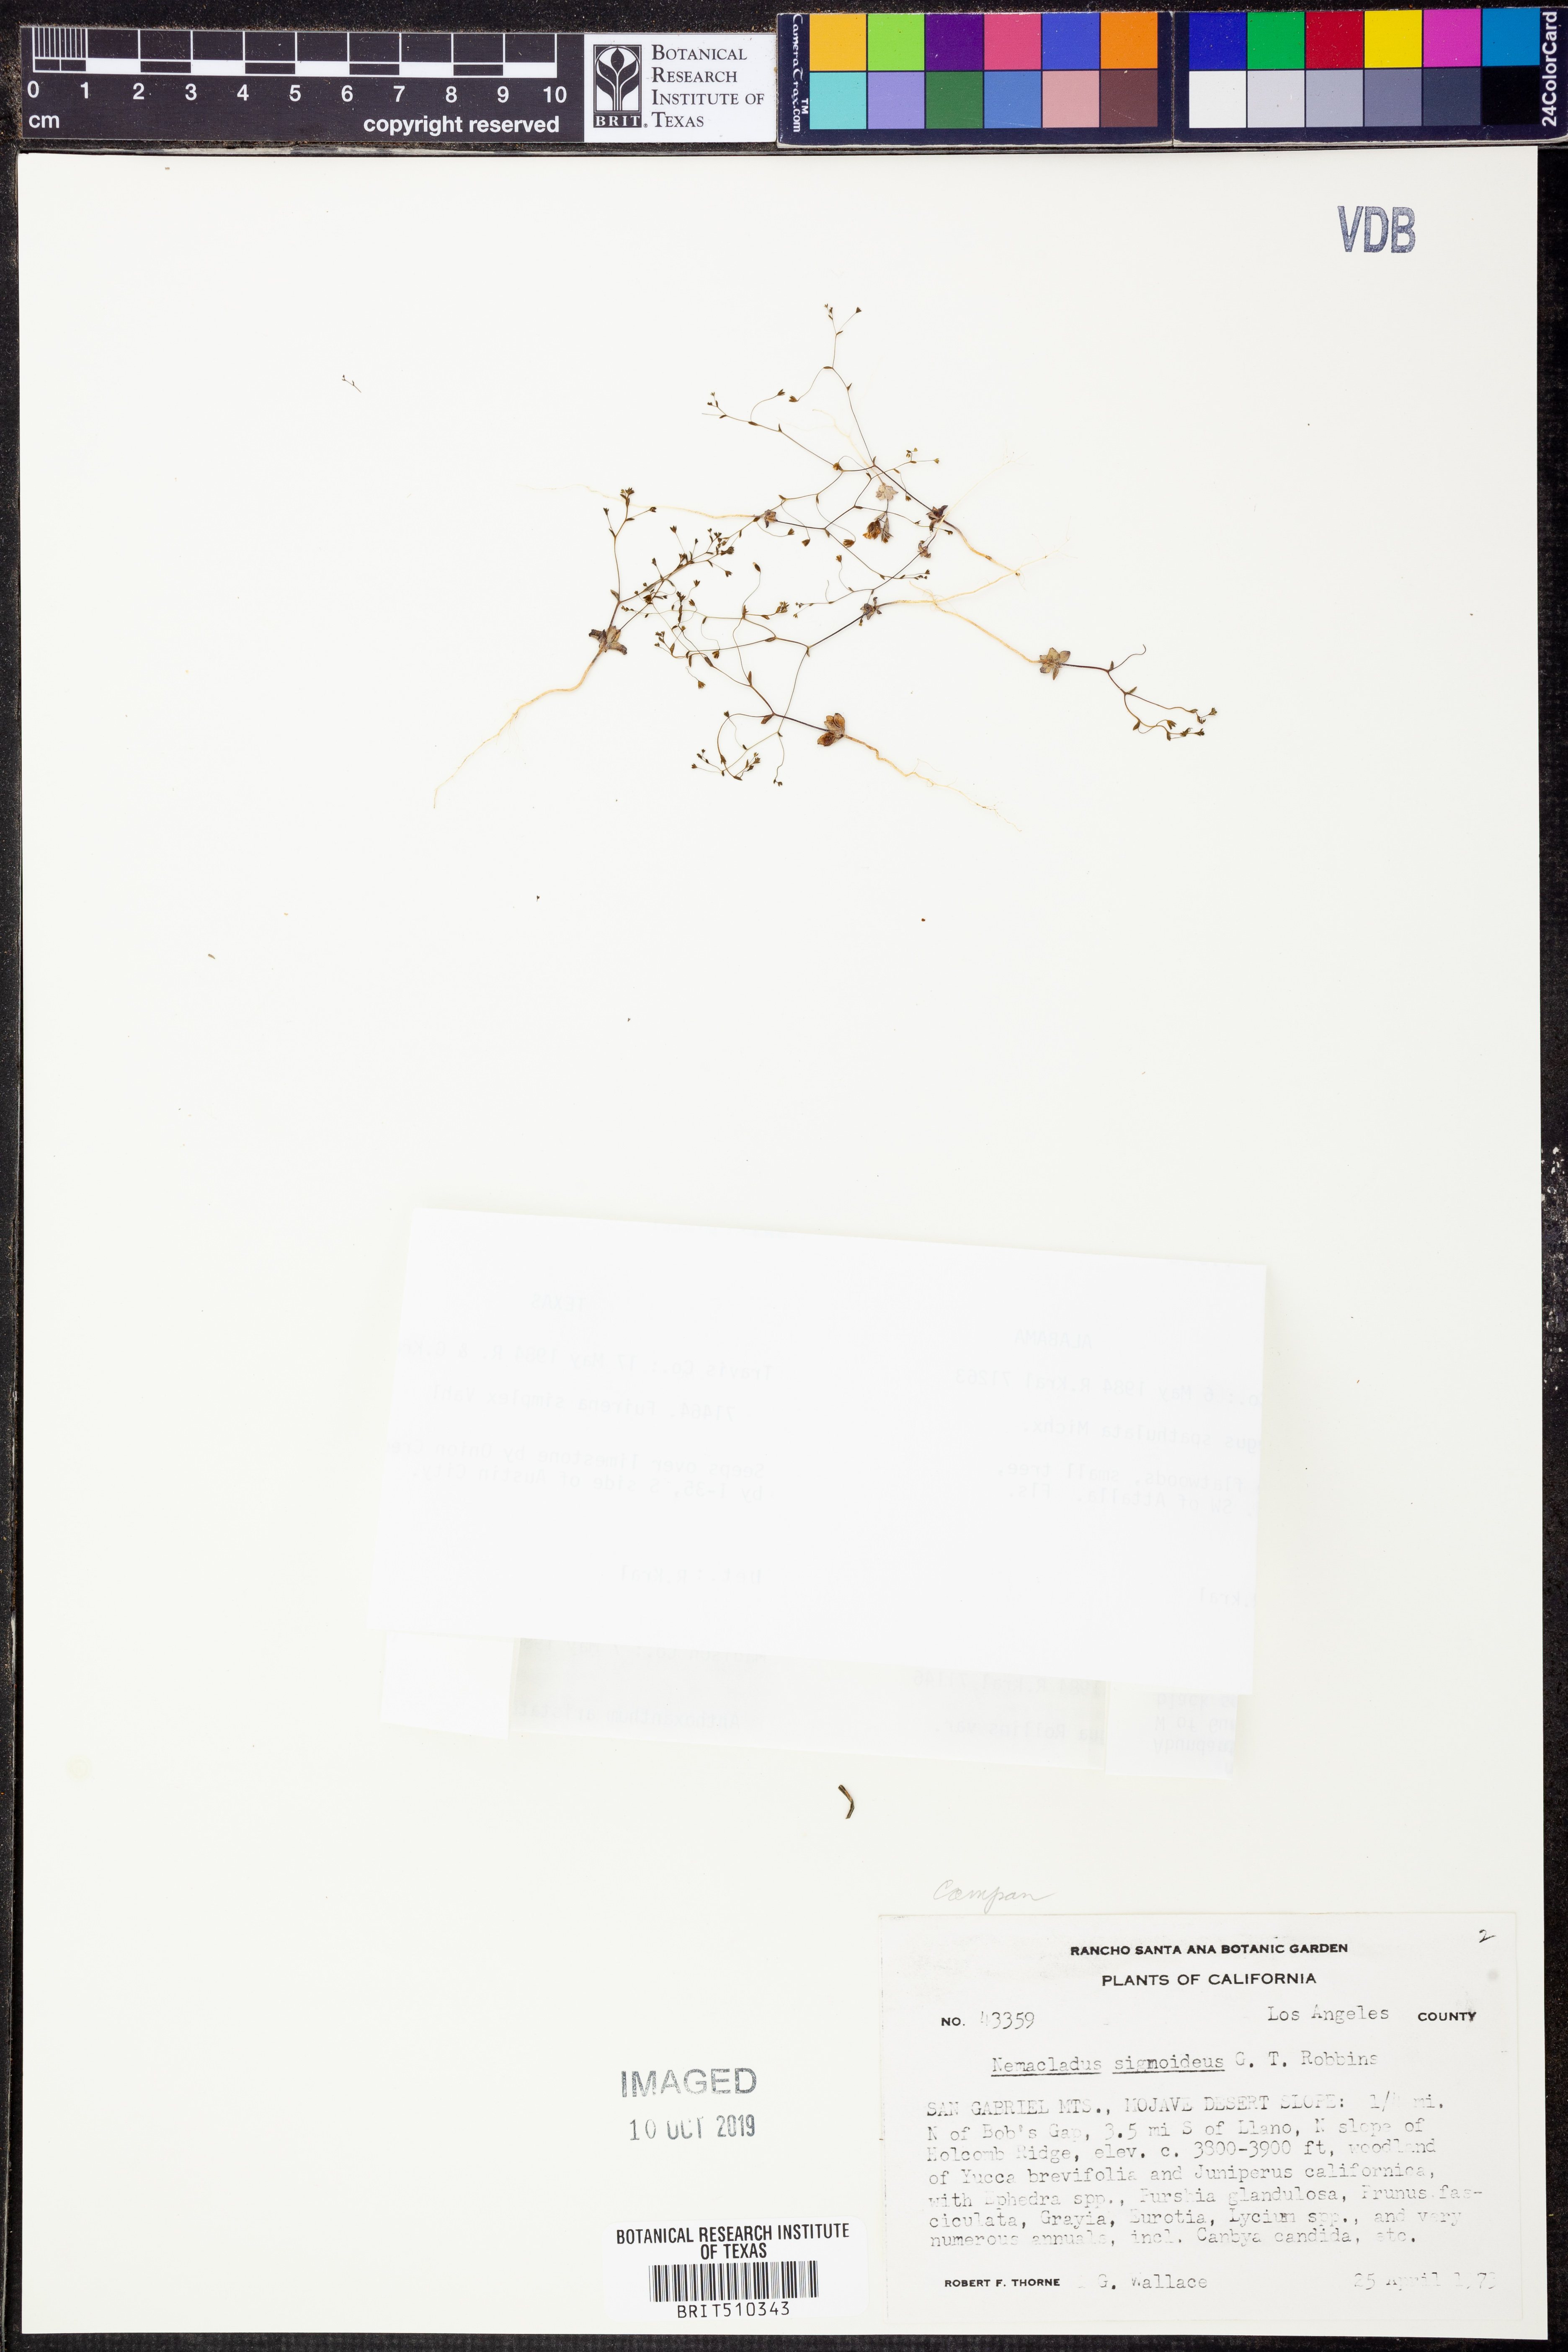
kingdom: Plantae
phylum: Tracheophyta
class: Magnoliopsida
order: Asterales
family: Campanulaceae
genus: Nemacladus
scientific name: Nemacladus sigmoideus
